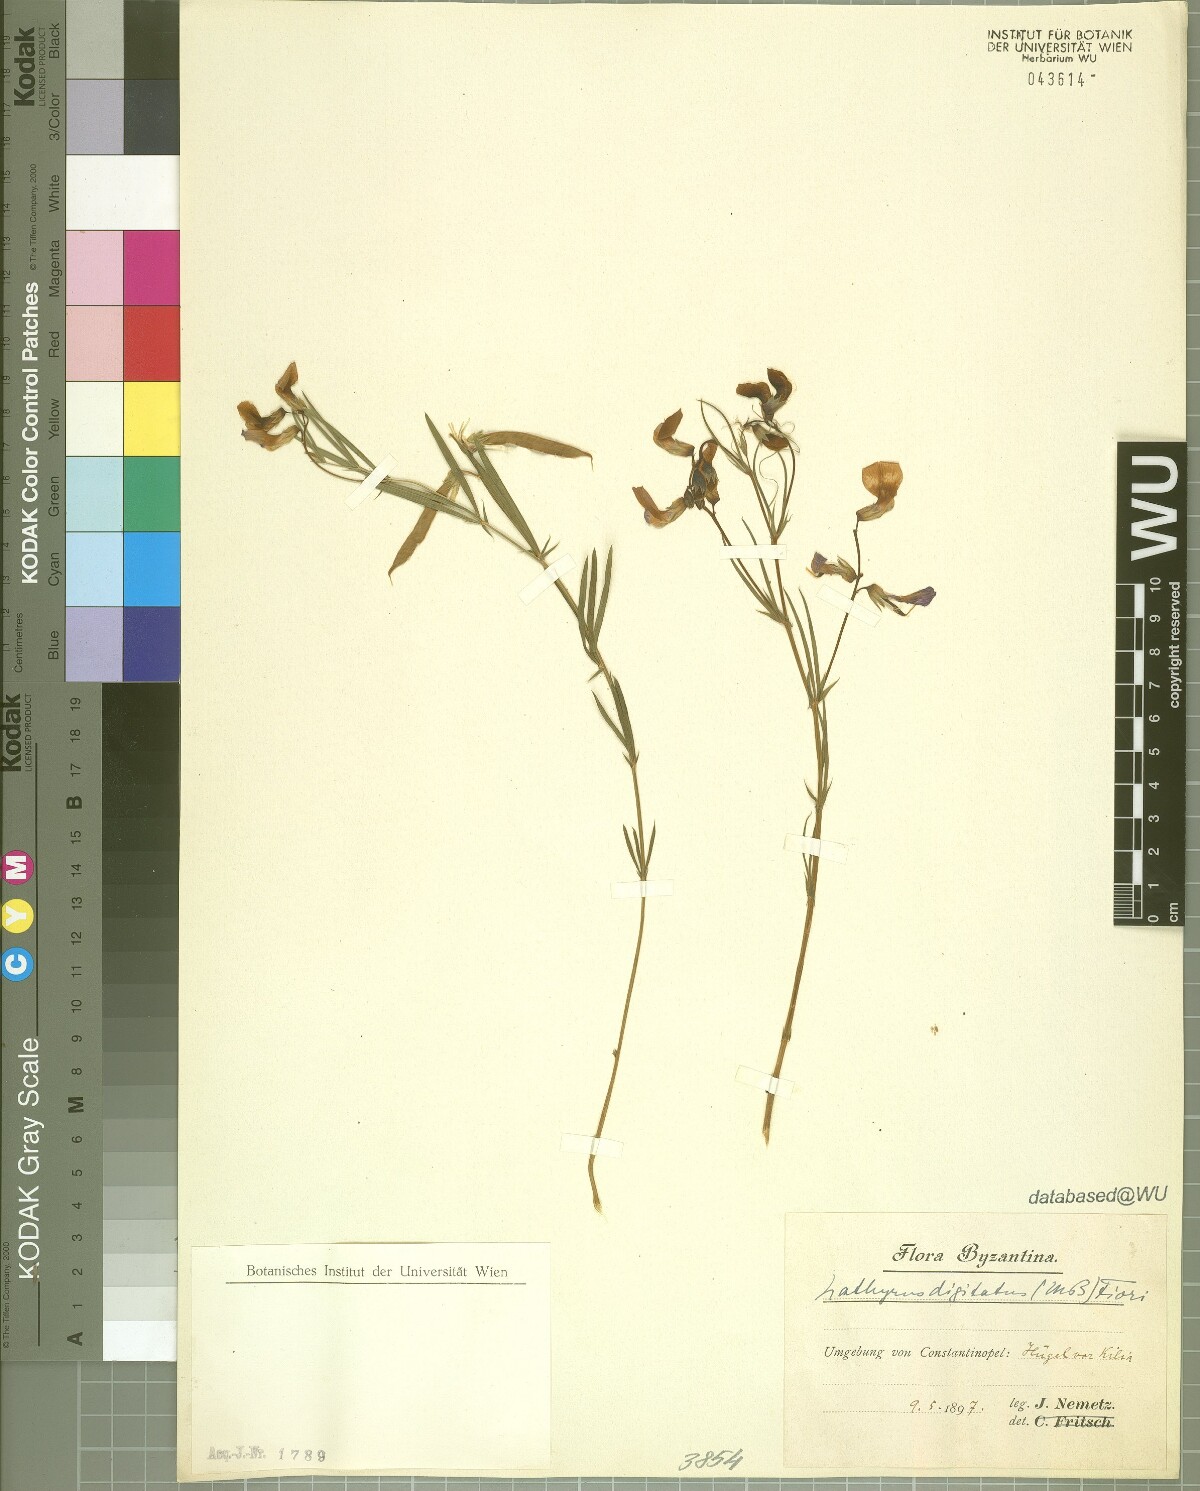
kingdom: Plantae
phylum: Tracheophyta
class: Magnoliopsida
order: Fabales
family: Fabaceae
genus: Lathyrus
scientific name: Lathyrus digitatus
